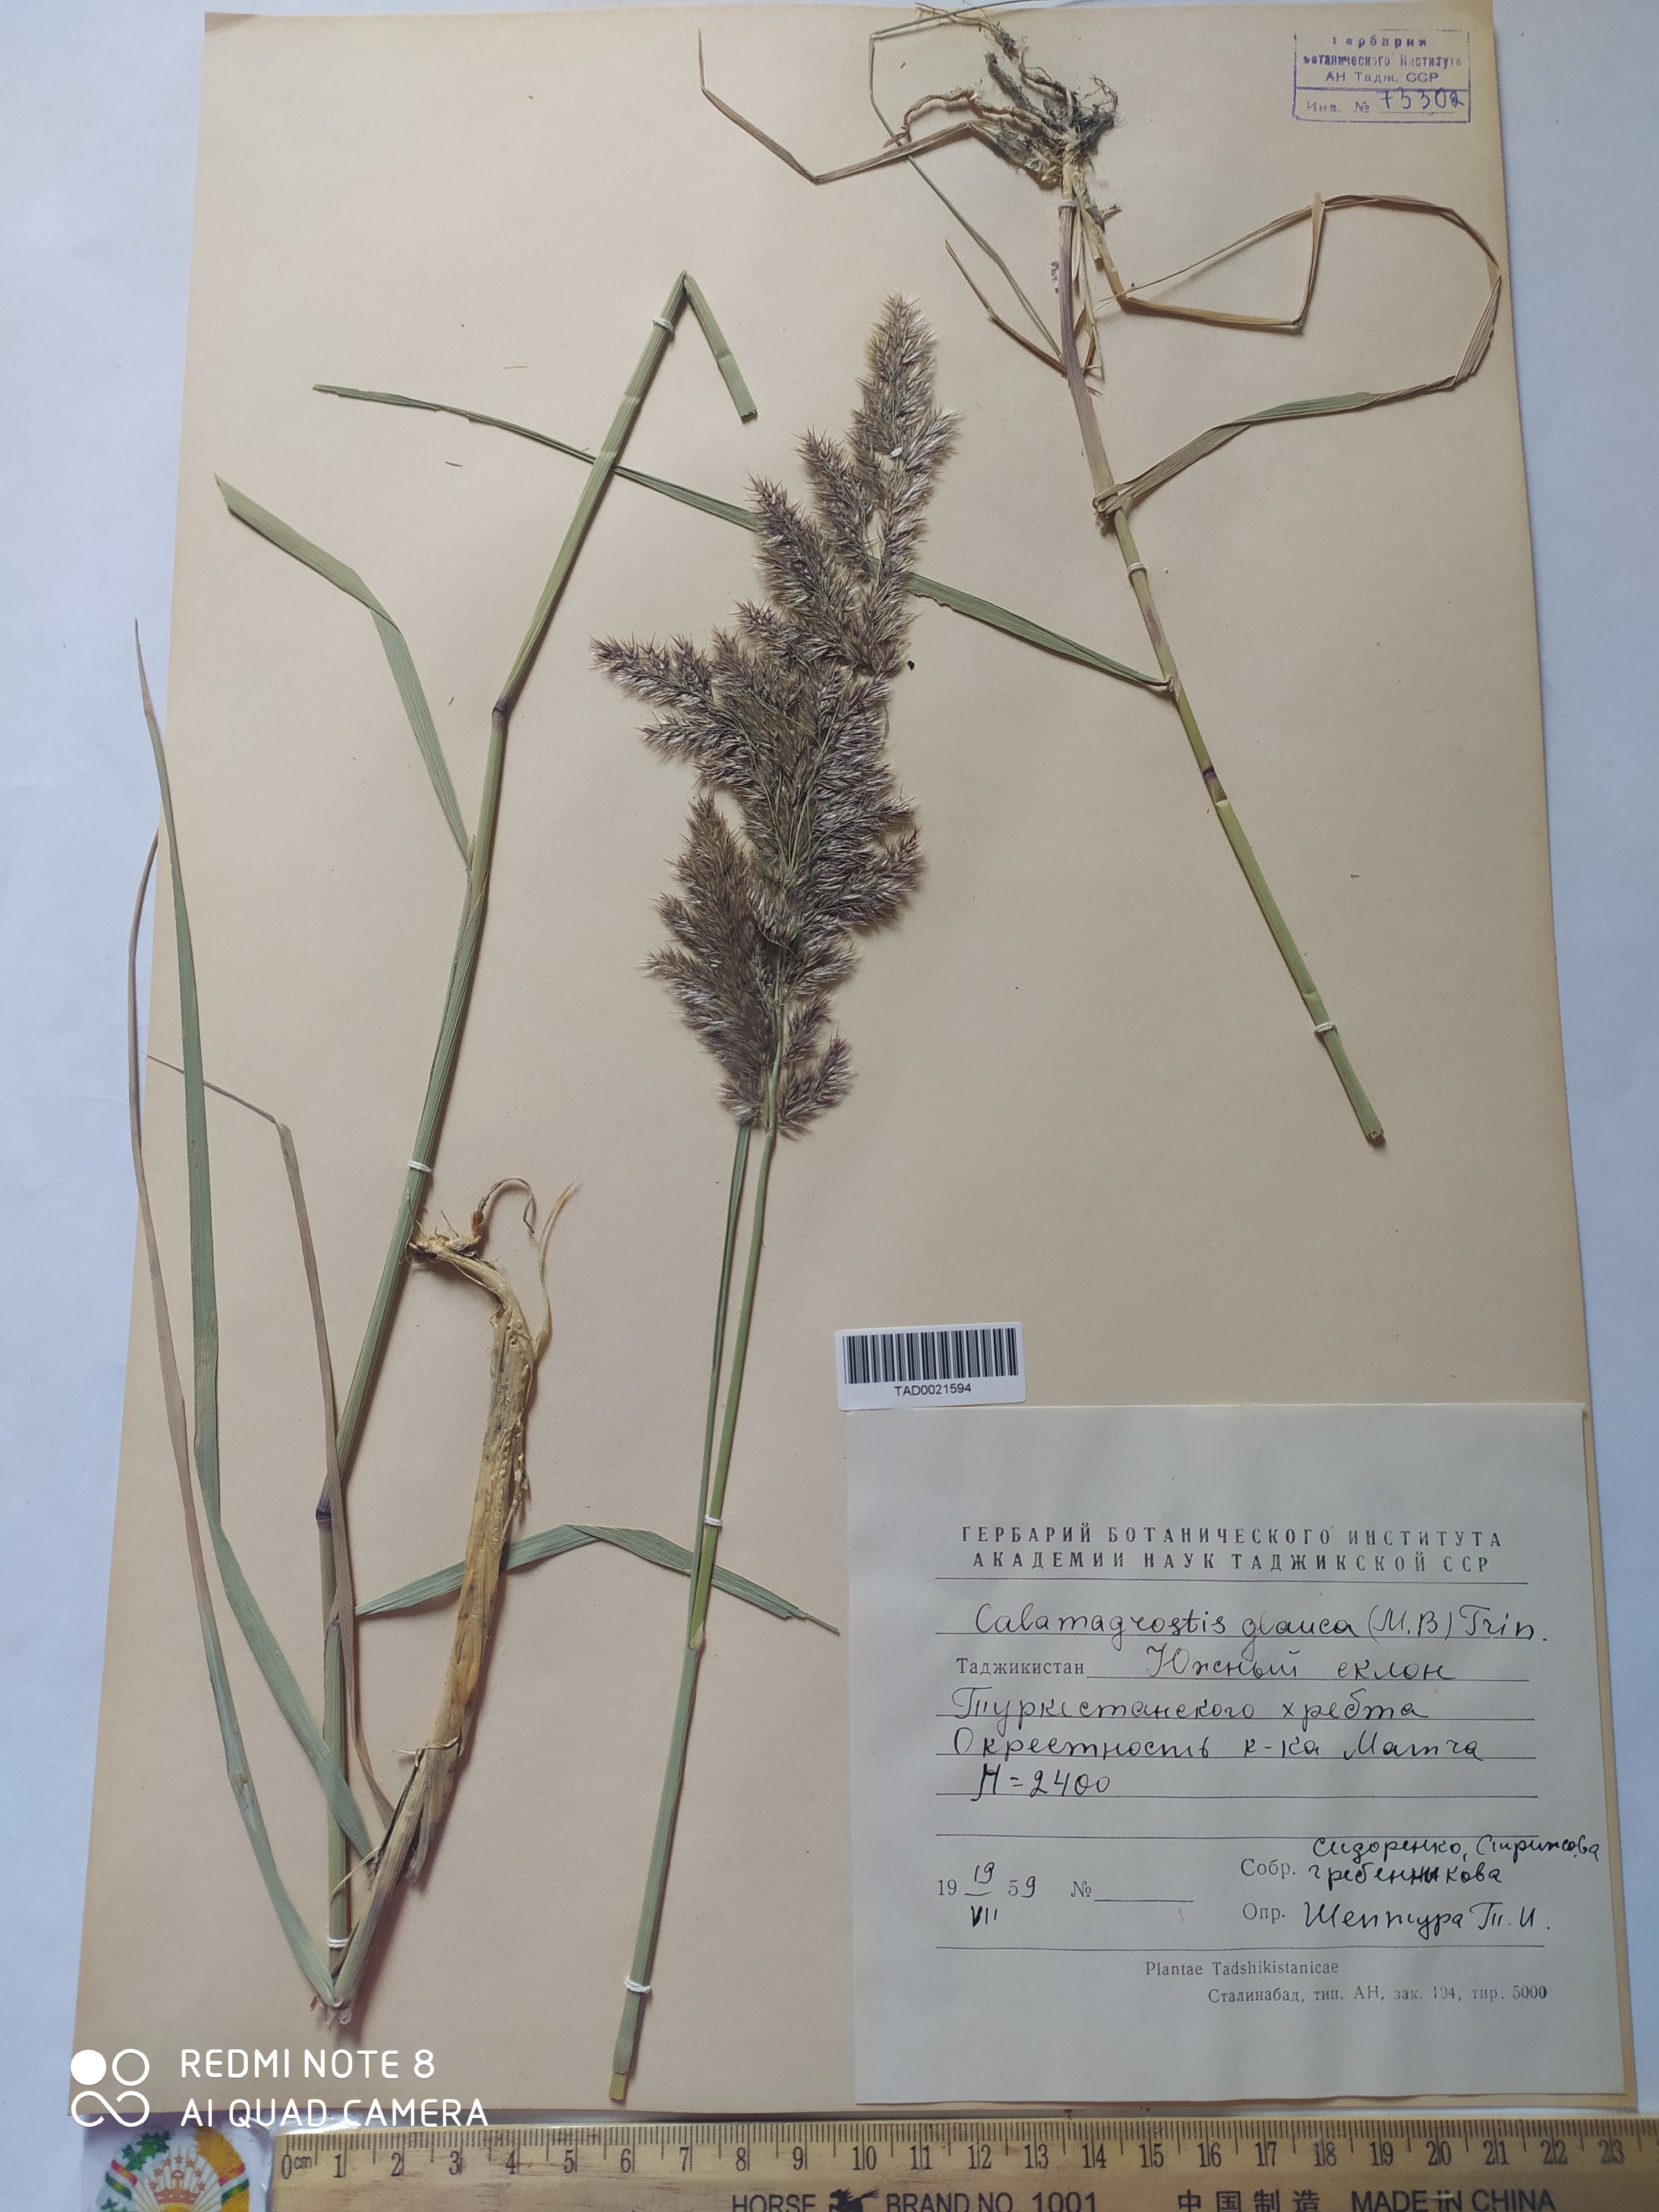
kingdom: Plantae
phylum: Tracheophyta
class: Liliopsida
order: Poales
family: Poaceae
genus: Calamagrostis
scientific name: Calamagrostis pseudophragmites
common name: Coastal small-reed
